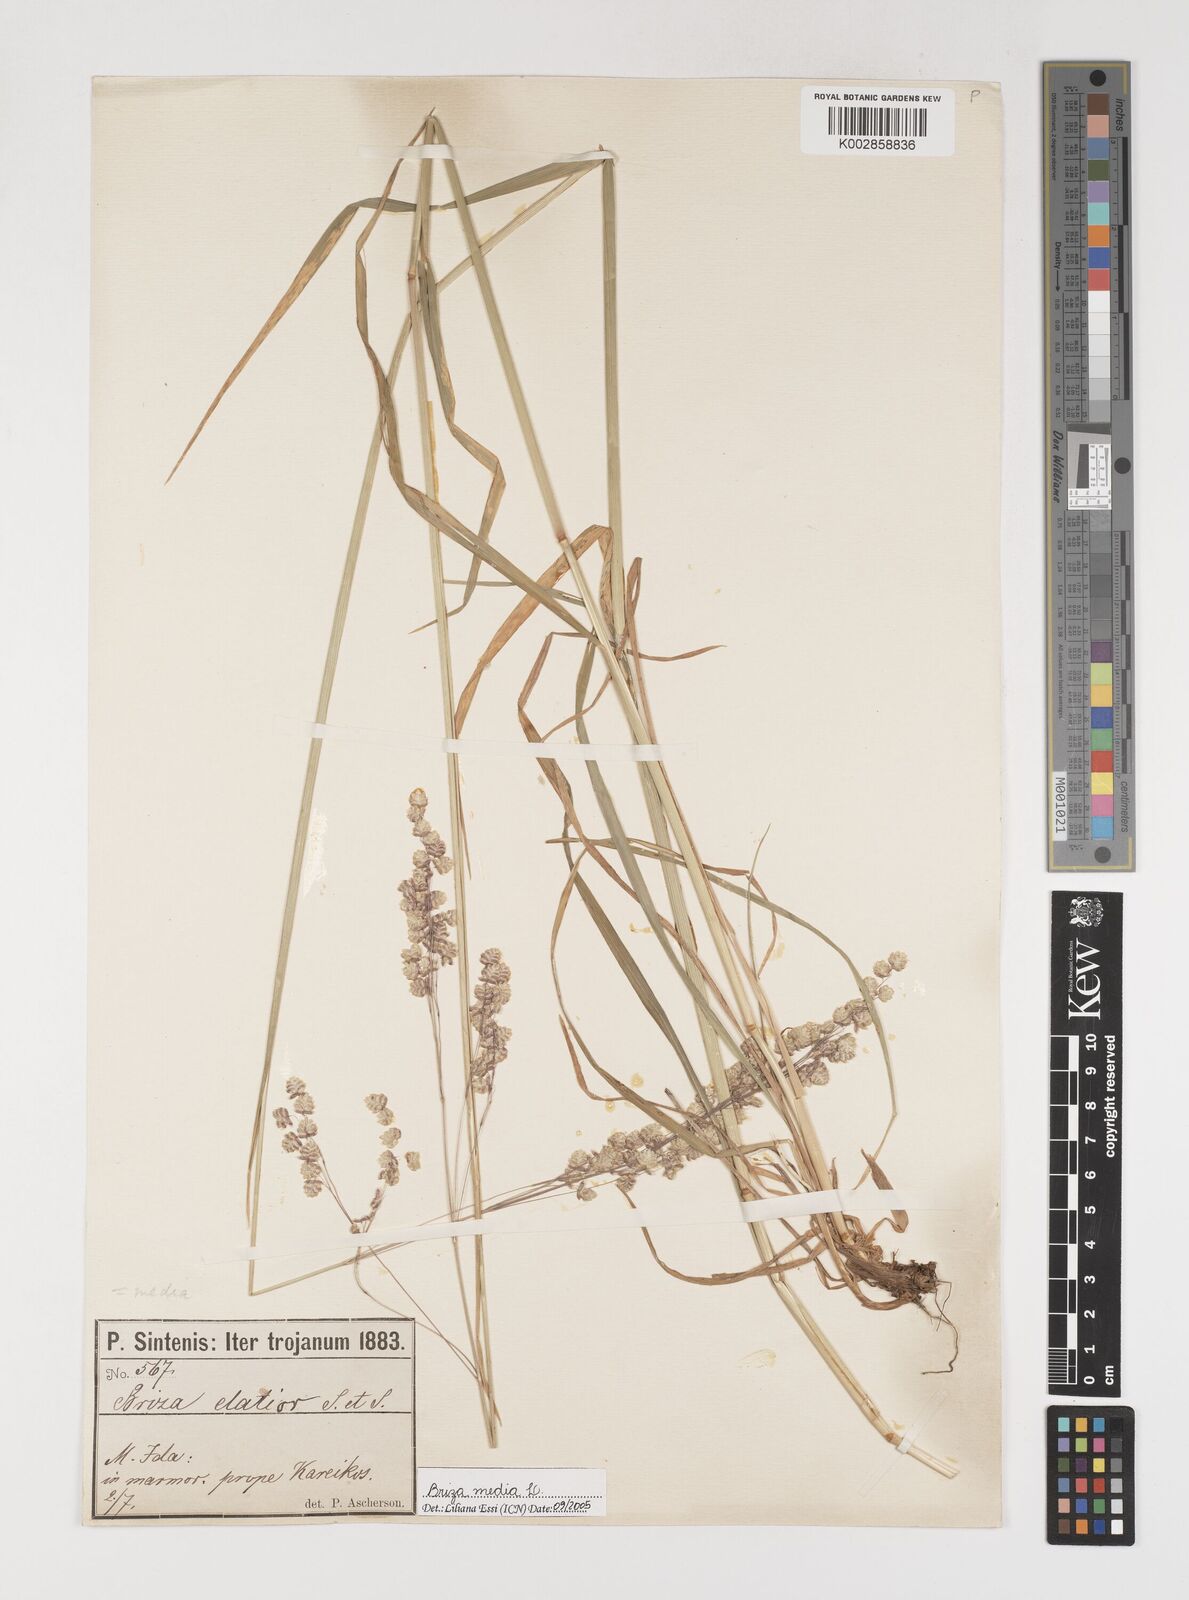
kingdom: Plantae
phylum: Tracheophyta
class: Liliopsida
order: Poales
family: Poaceae
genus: Briza
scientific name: Briza media
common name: Quaking grass
